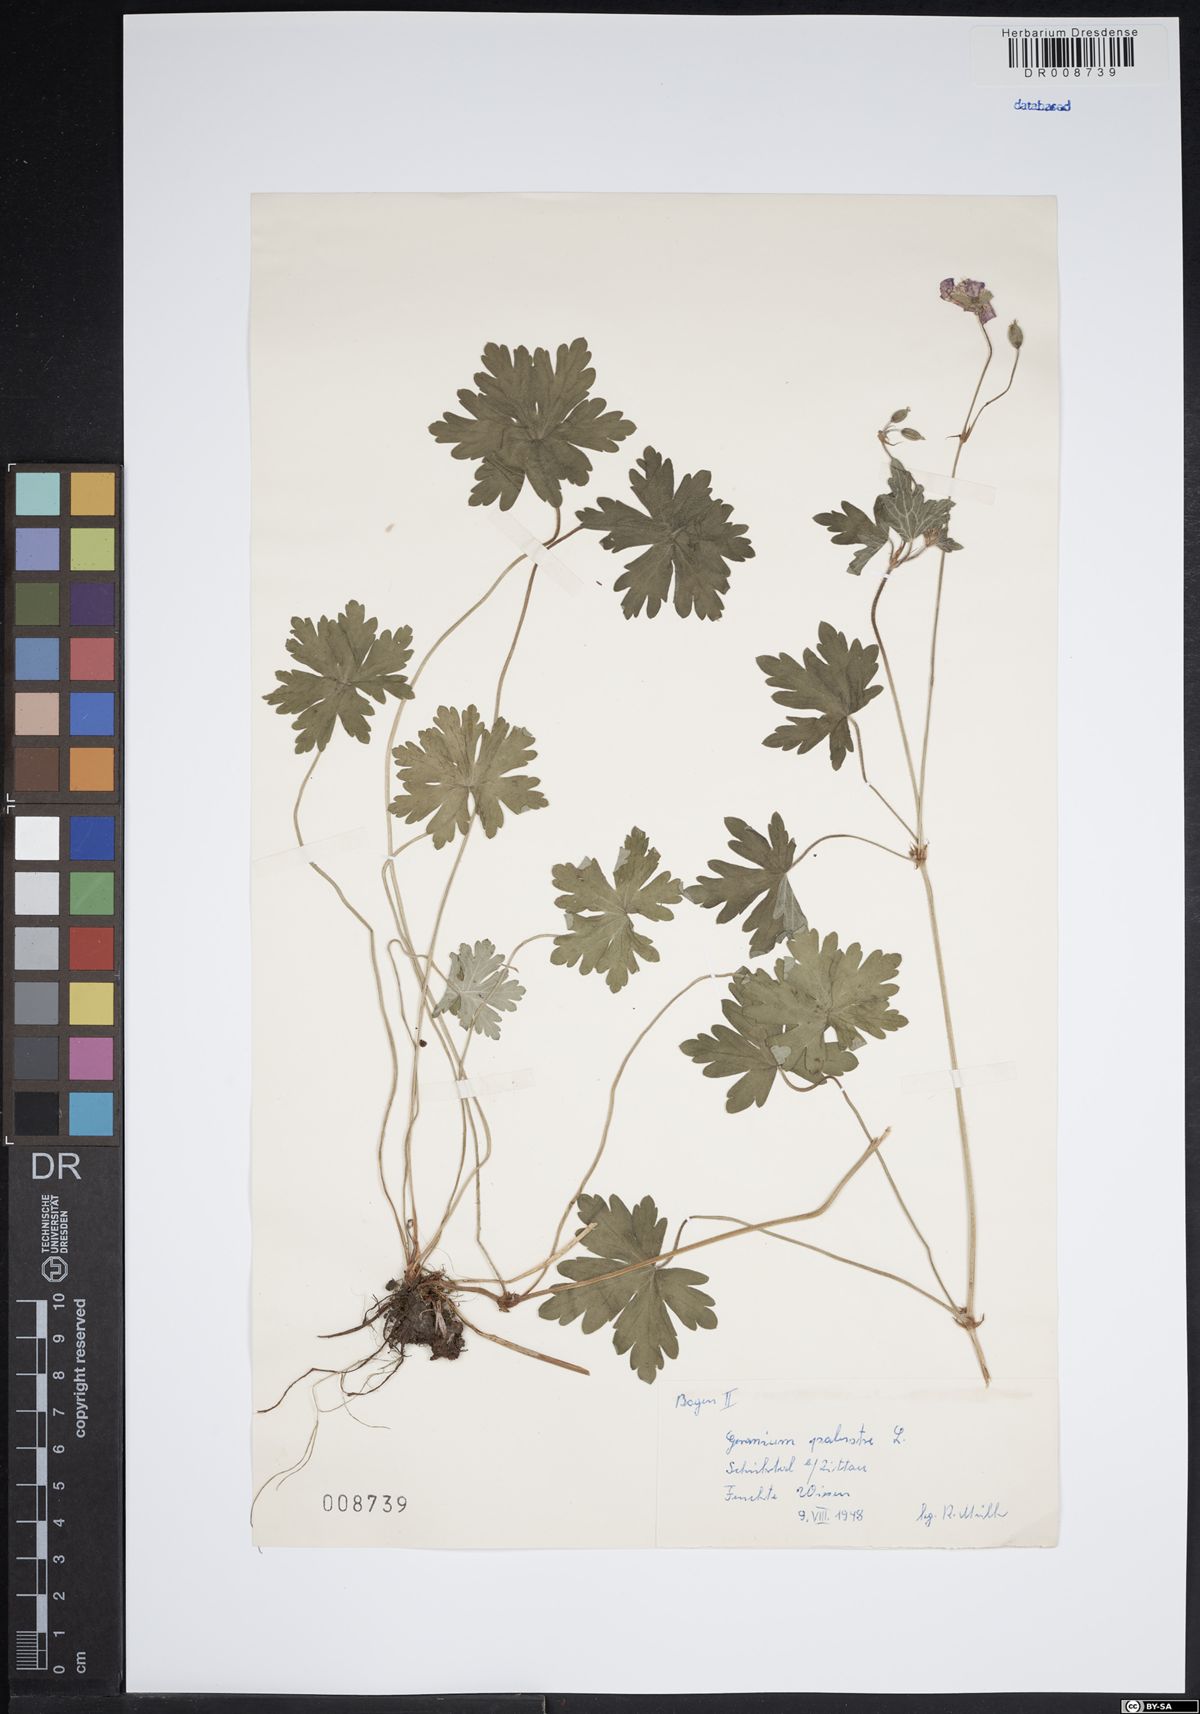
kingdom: Plantae
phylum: Tracheophyta
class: Magnoliopsida
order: Geraniales
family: Geraniaceae
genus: Geranium
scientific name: Geranium palustre
